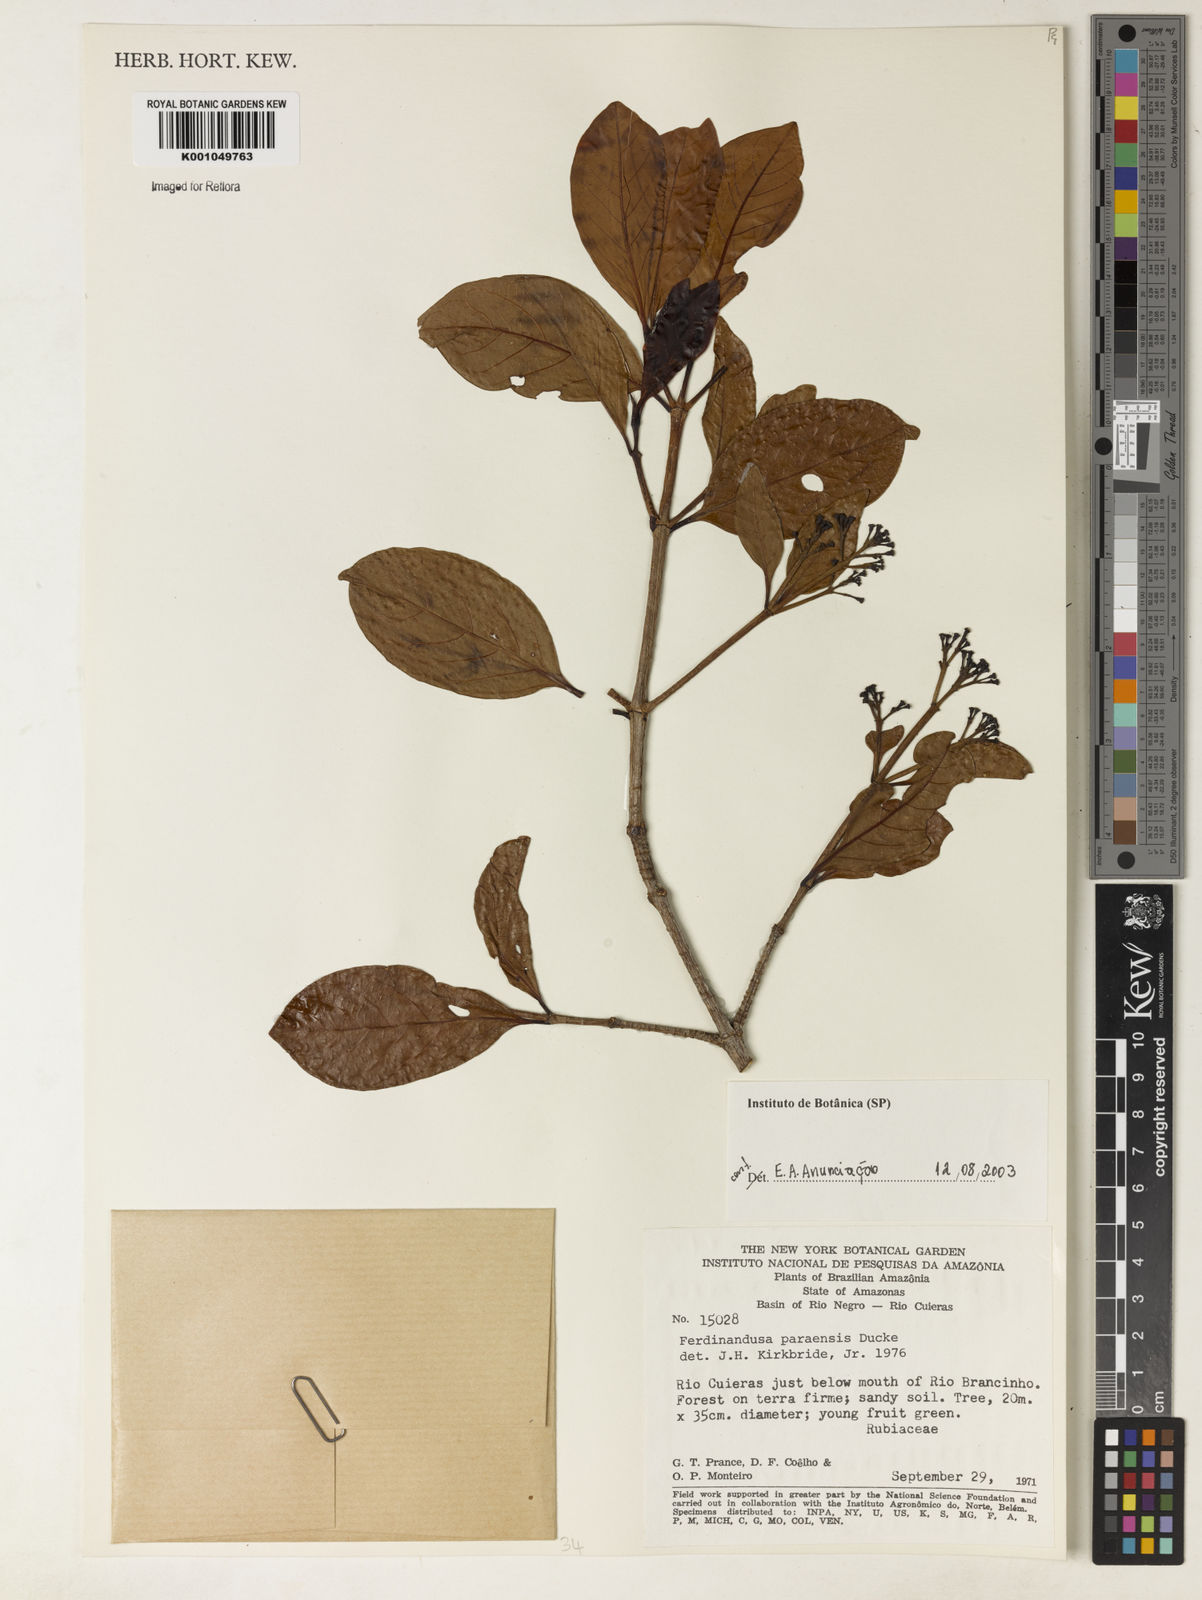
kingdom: Plantae
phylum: Tracheophyta
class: Magnoliopsida
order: Gentianales
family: Rubiaceae
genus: Ferdinandusa
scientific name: Ferdinandusa paraensis
